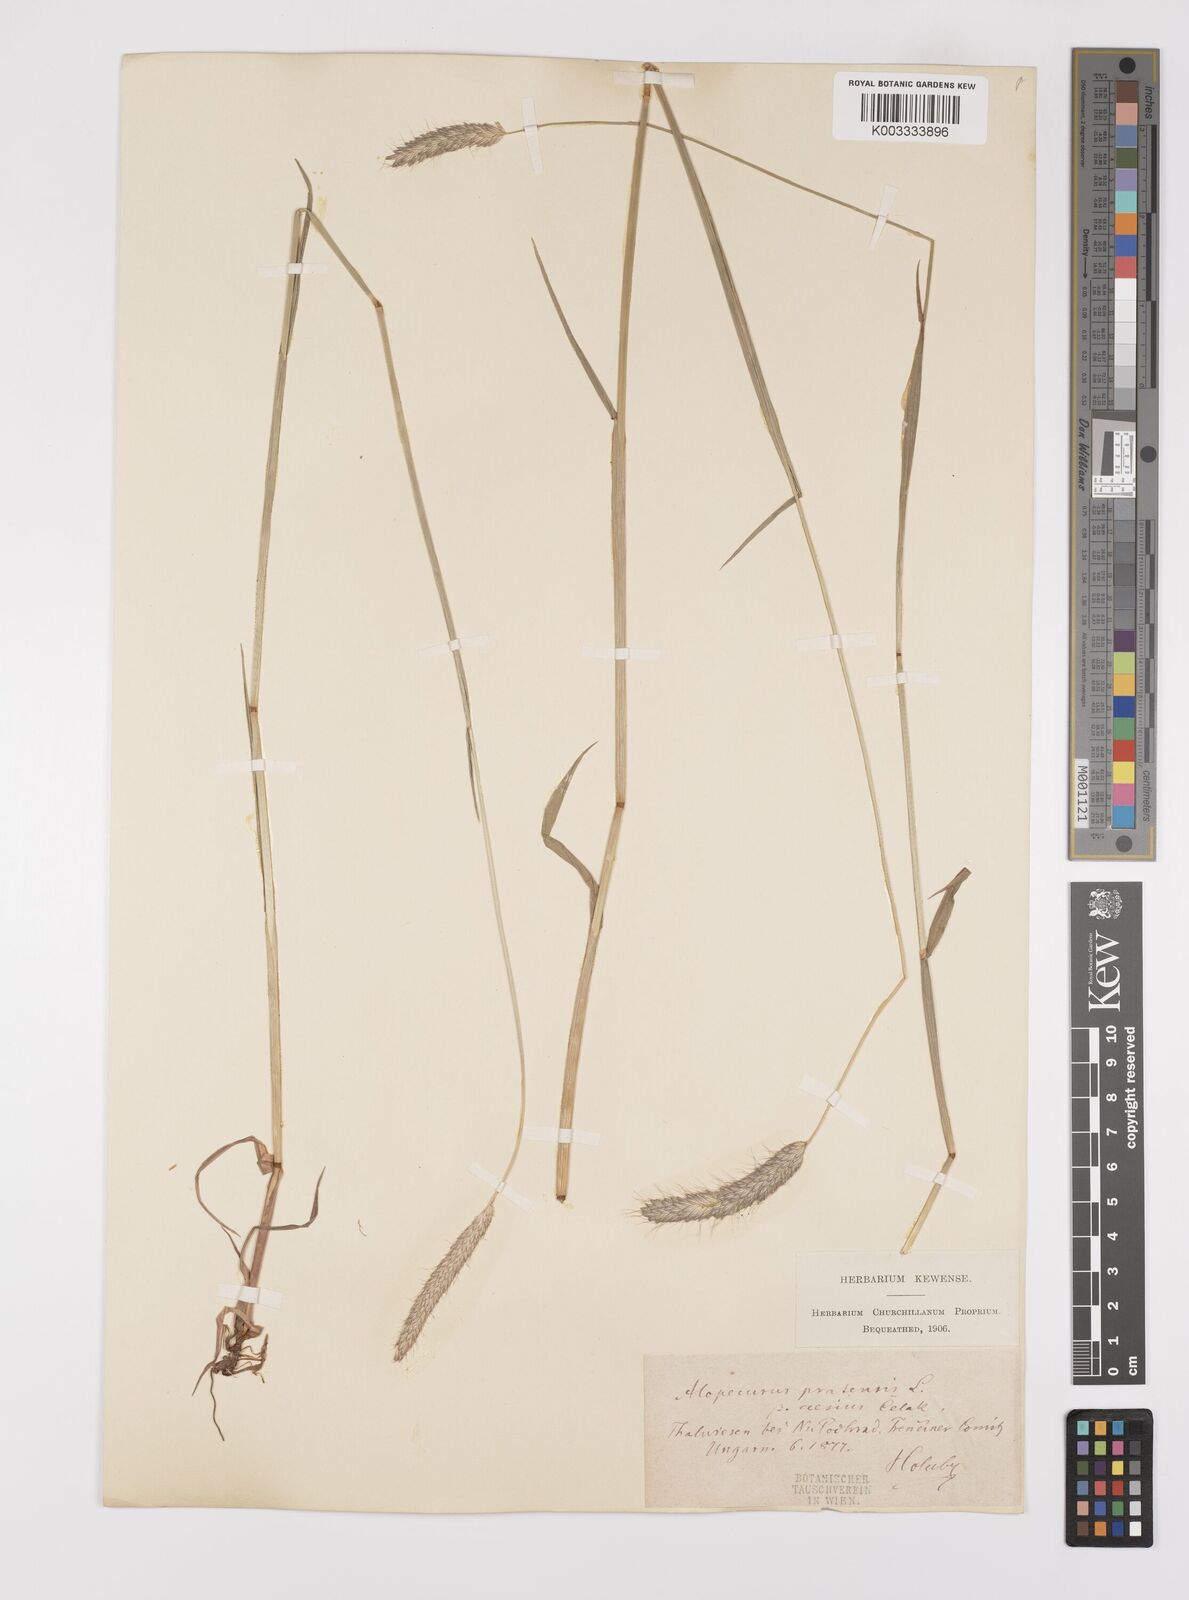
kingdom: Plantae
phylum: Tracheophyta
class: Liliopsida
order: Poales
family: Poaceae
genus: Alopecurus
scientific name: Alopecurus pratensis
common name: Meadow foxtail
